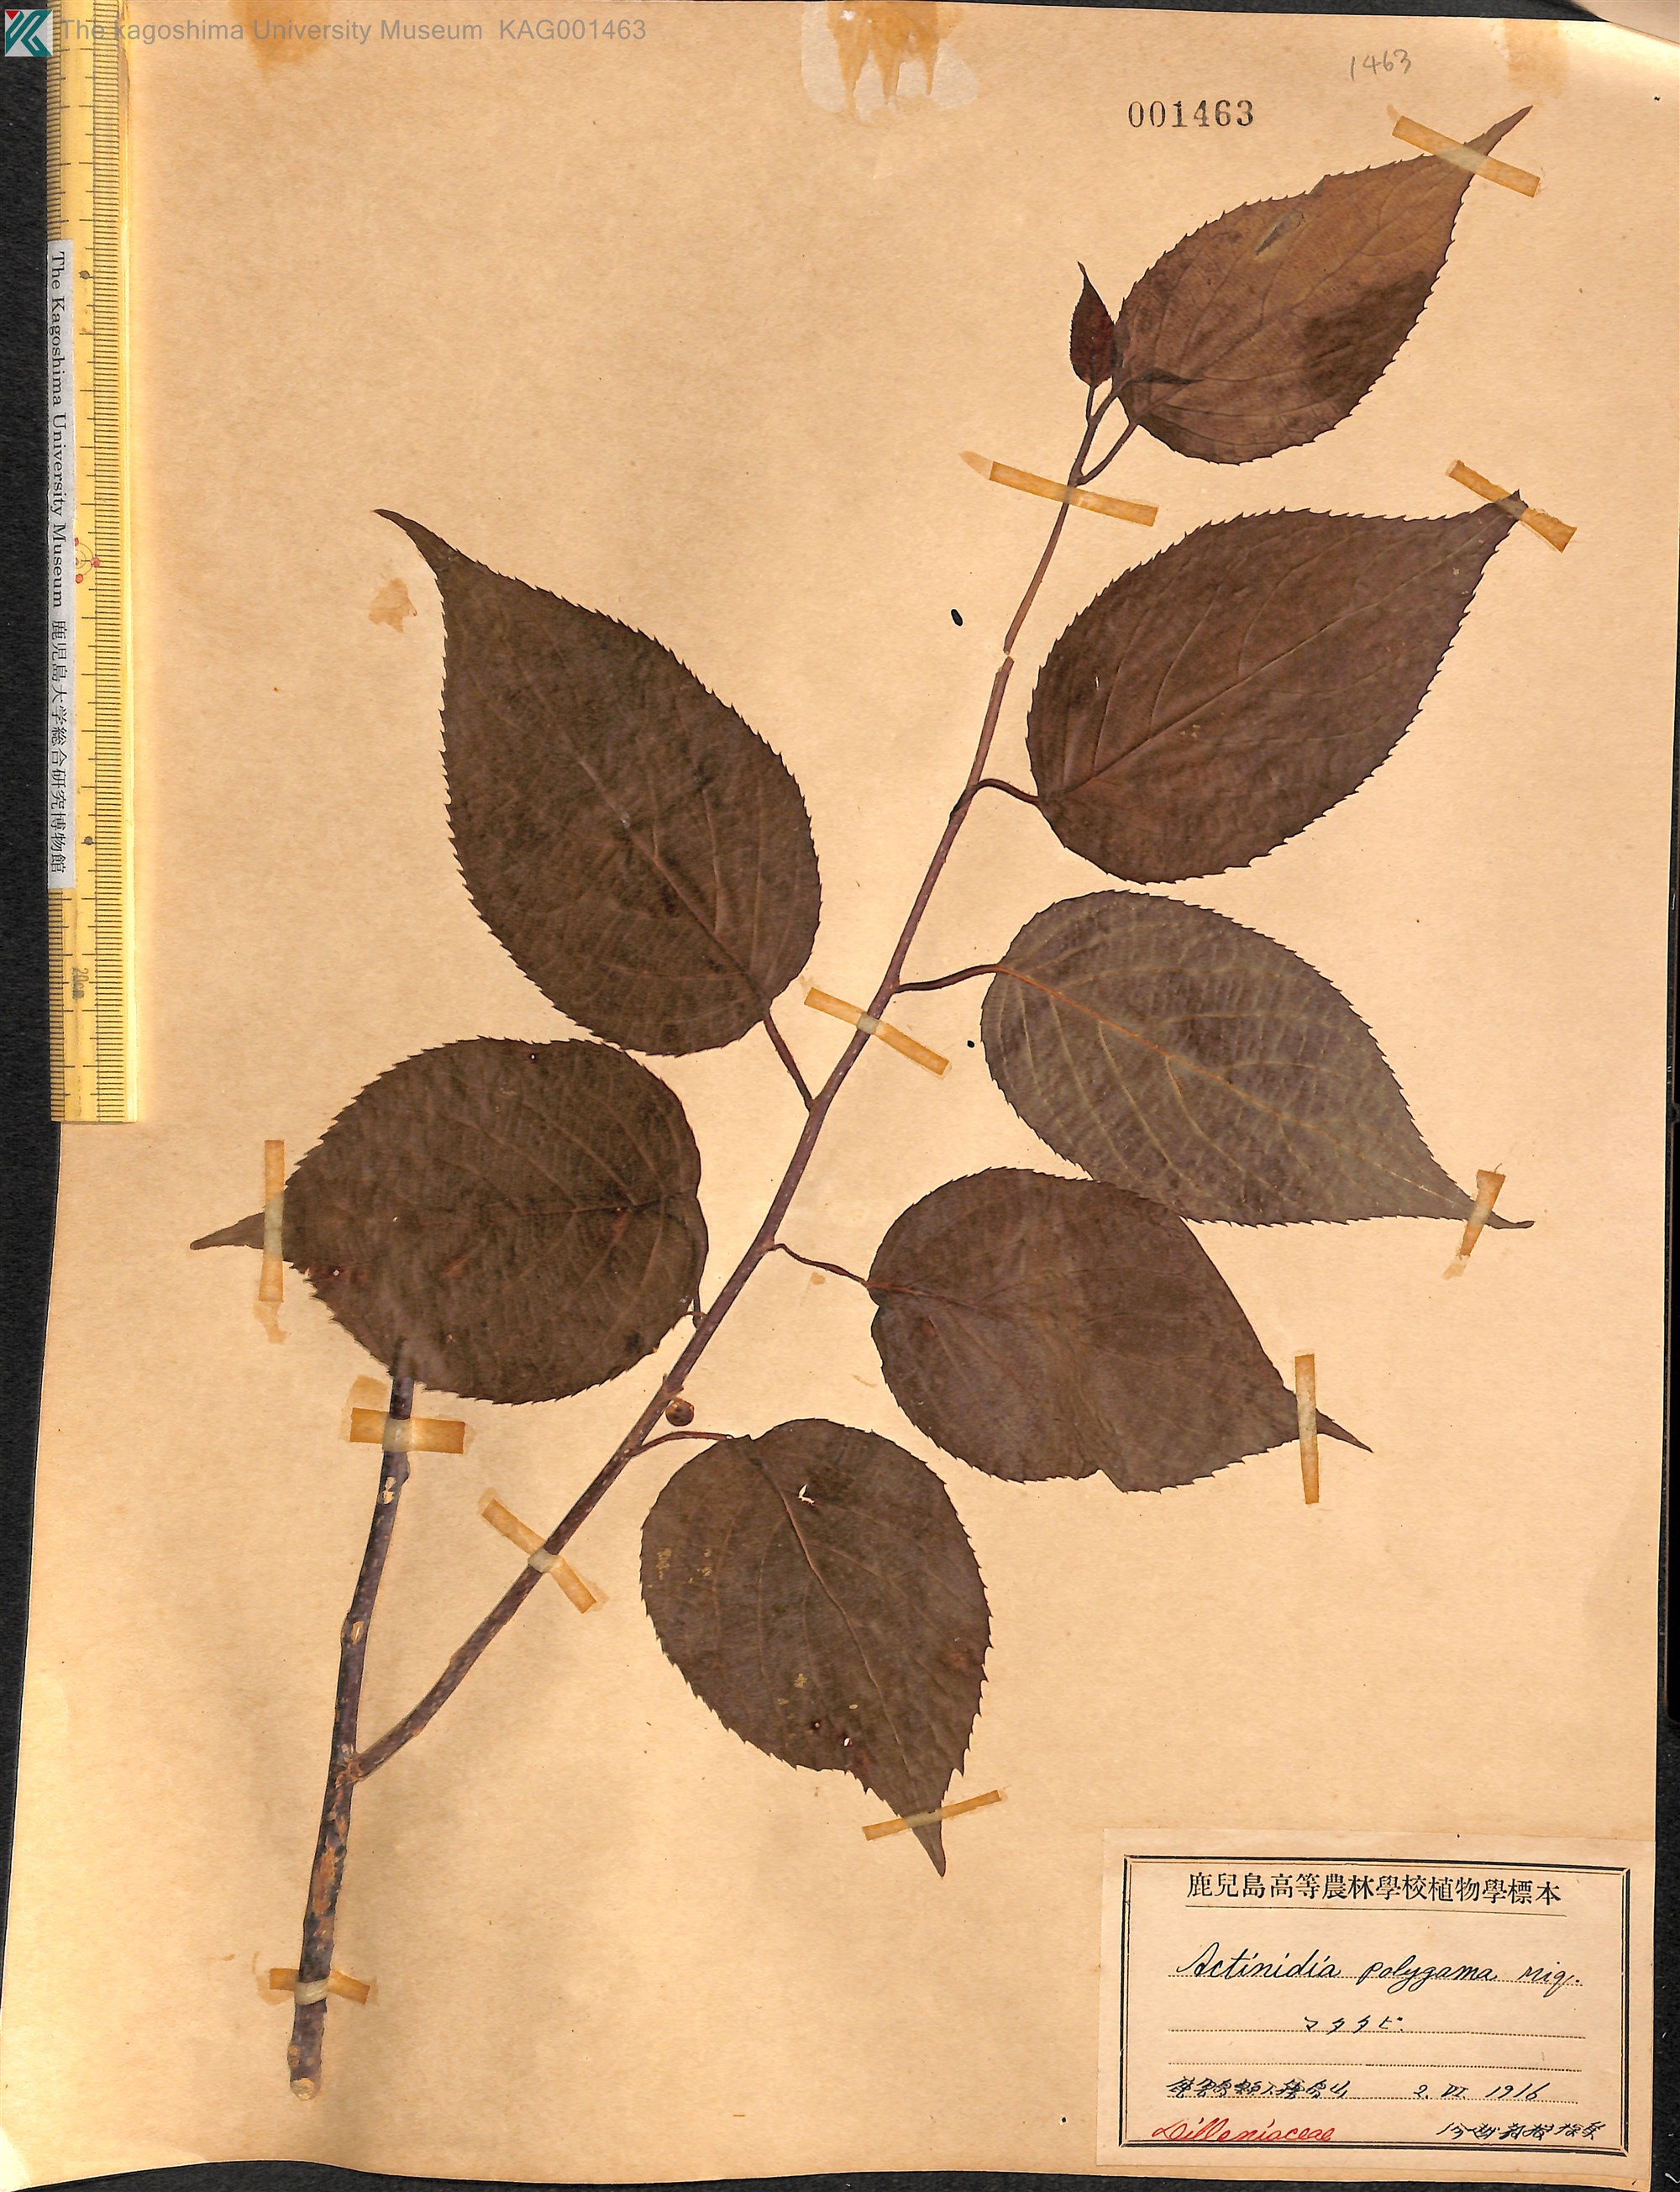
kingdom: Plantae
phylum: Tracheophyta
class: Magnoliopsida
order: Ericales
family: Actinidiaceae
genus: Actinidia
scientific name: Actinidia polygama
